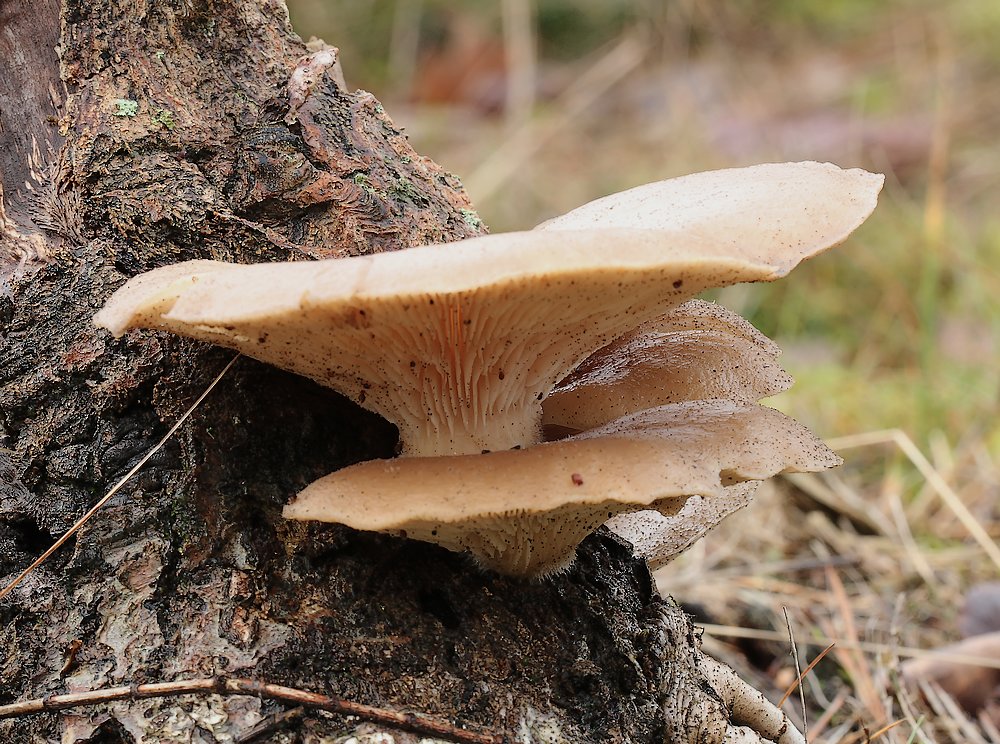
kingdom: Fungi
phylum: Basidiomycota
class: Agaricomycetes
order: Agaricales
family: Pleurotaceae
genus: Pleurotus
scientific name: Pleurotus
